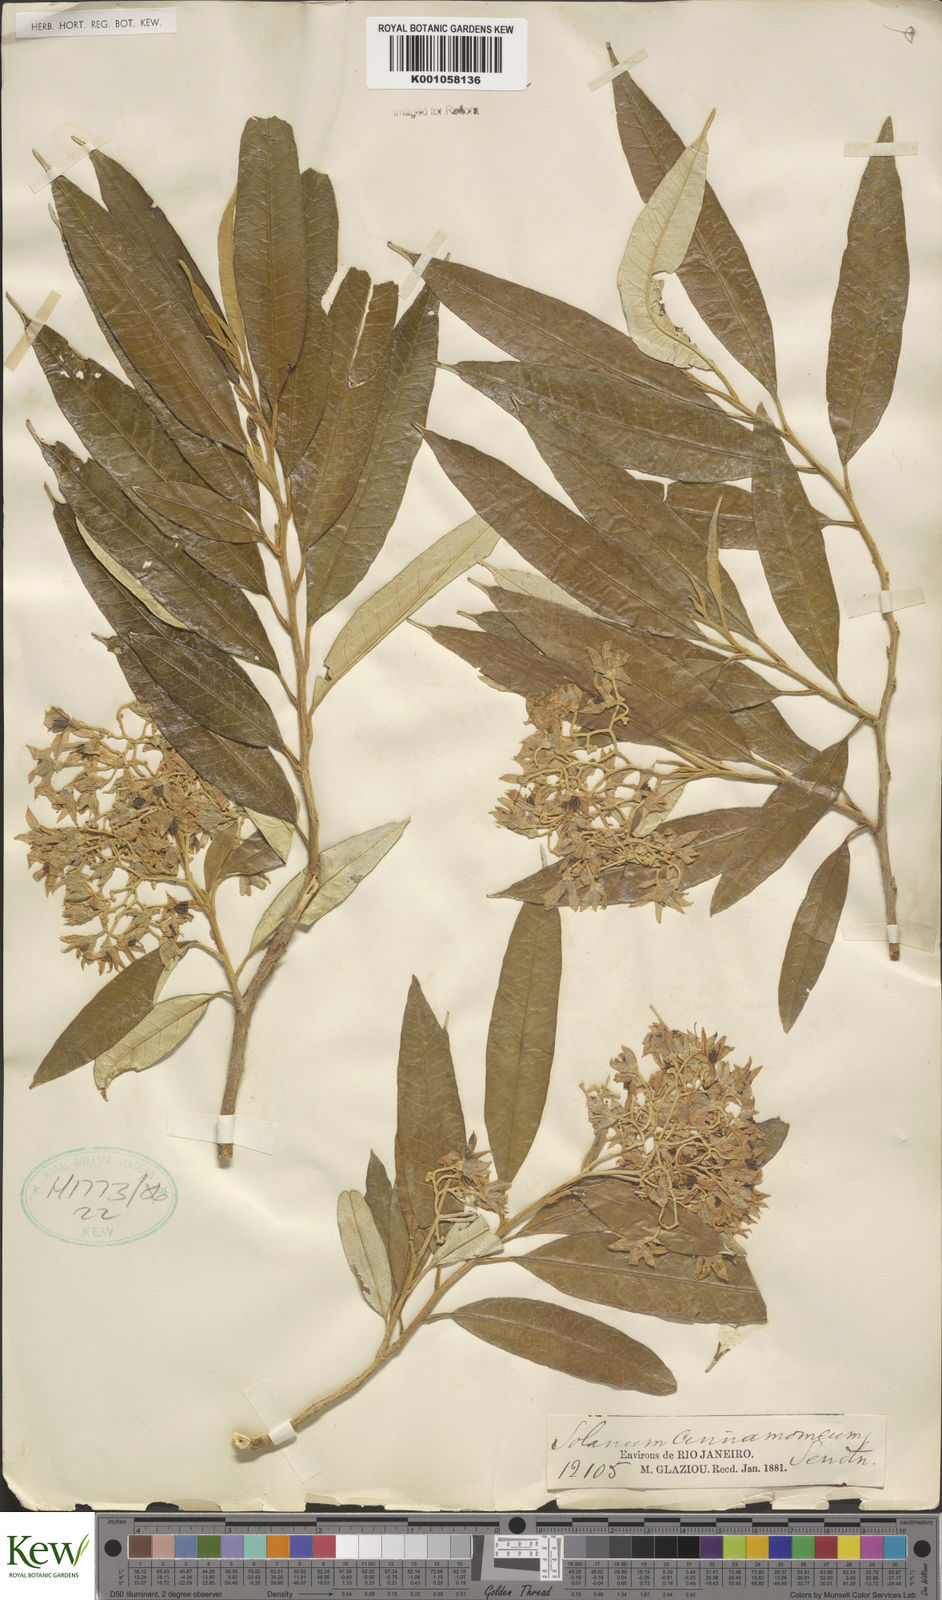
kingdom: Plantae
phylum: Tracheophyta
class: Magnoliopsida
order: Solanales
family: Solanaceae
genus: Solanum
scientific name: Solanum cinnamomeum
